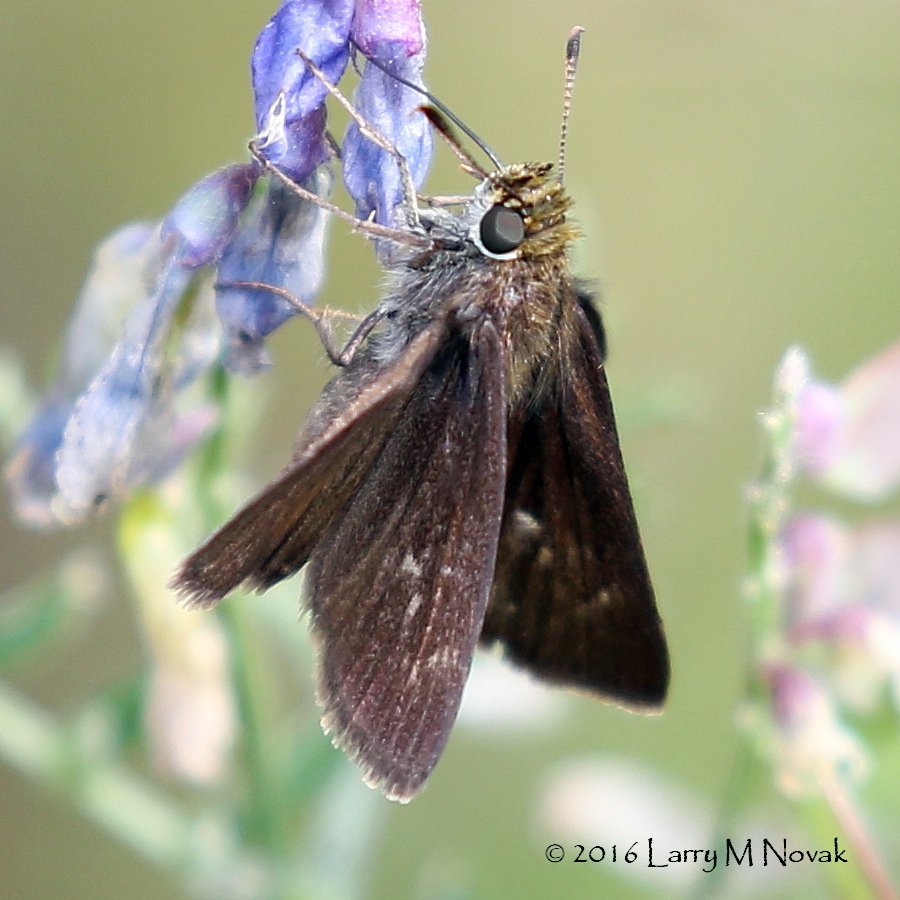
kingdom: Animalia
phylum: Arthropoda
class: Insecta
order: Lepidoptera
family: Hesperiidae
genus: Euphyes
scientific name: Euphyes vestris
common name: Dun Skipper
